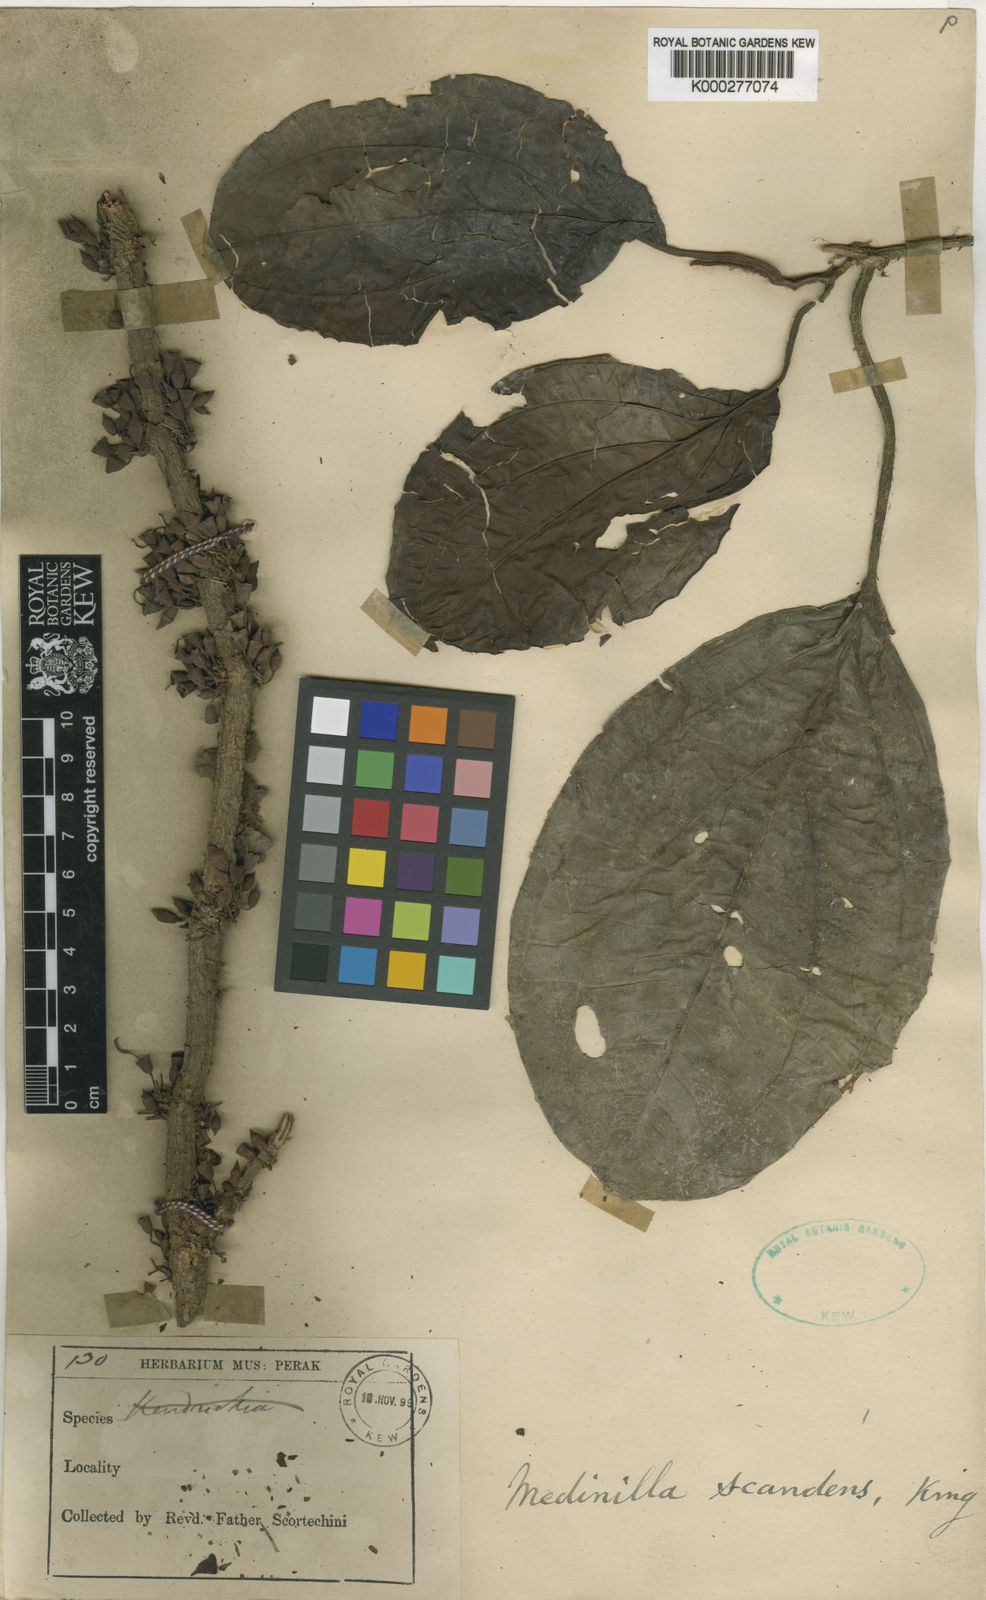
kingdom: Plantae
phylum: Tracheophyta
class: Magnoliopsida
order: Myrtales
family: Melastomataceae
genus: Heteroblemma
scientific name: Heteroblemma alternifolium
